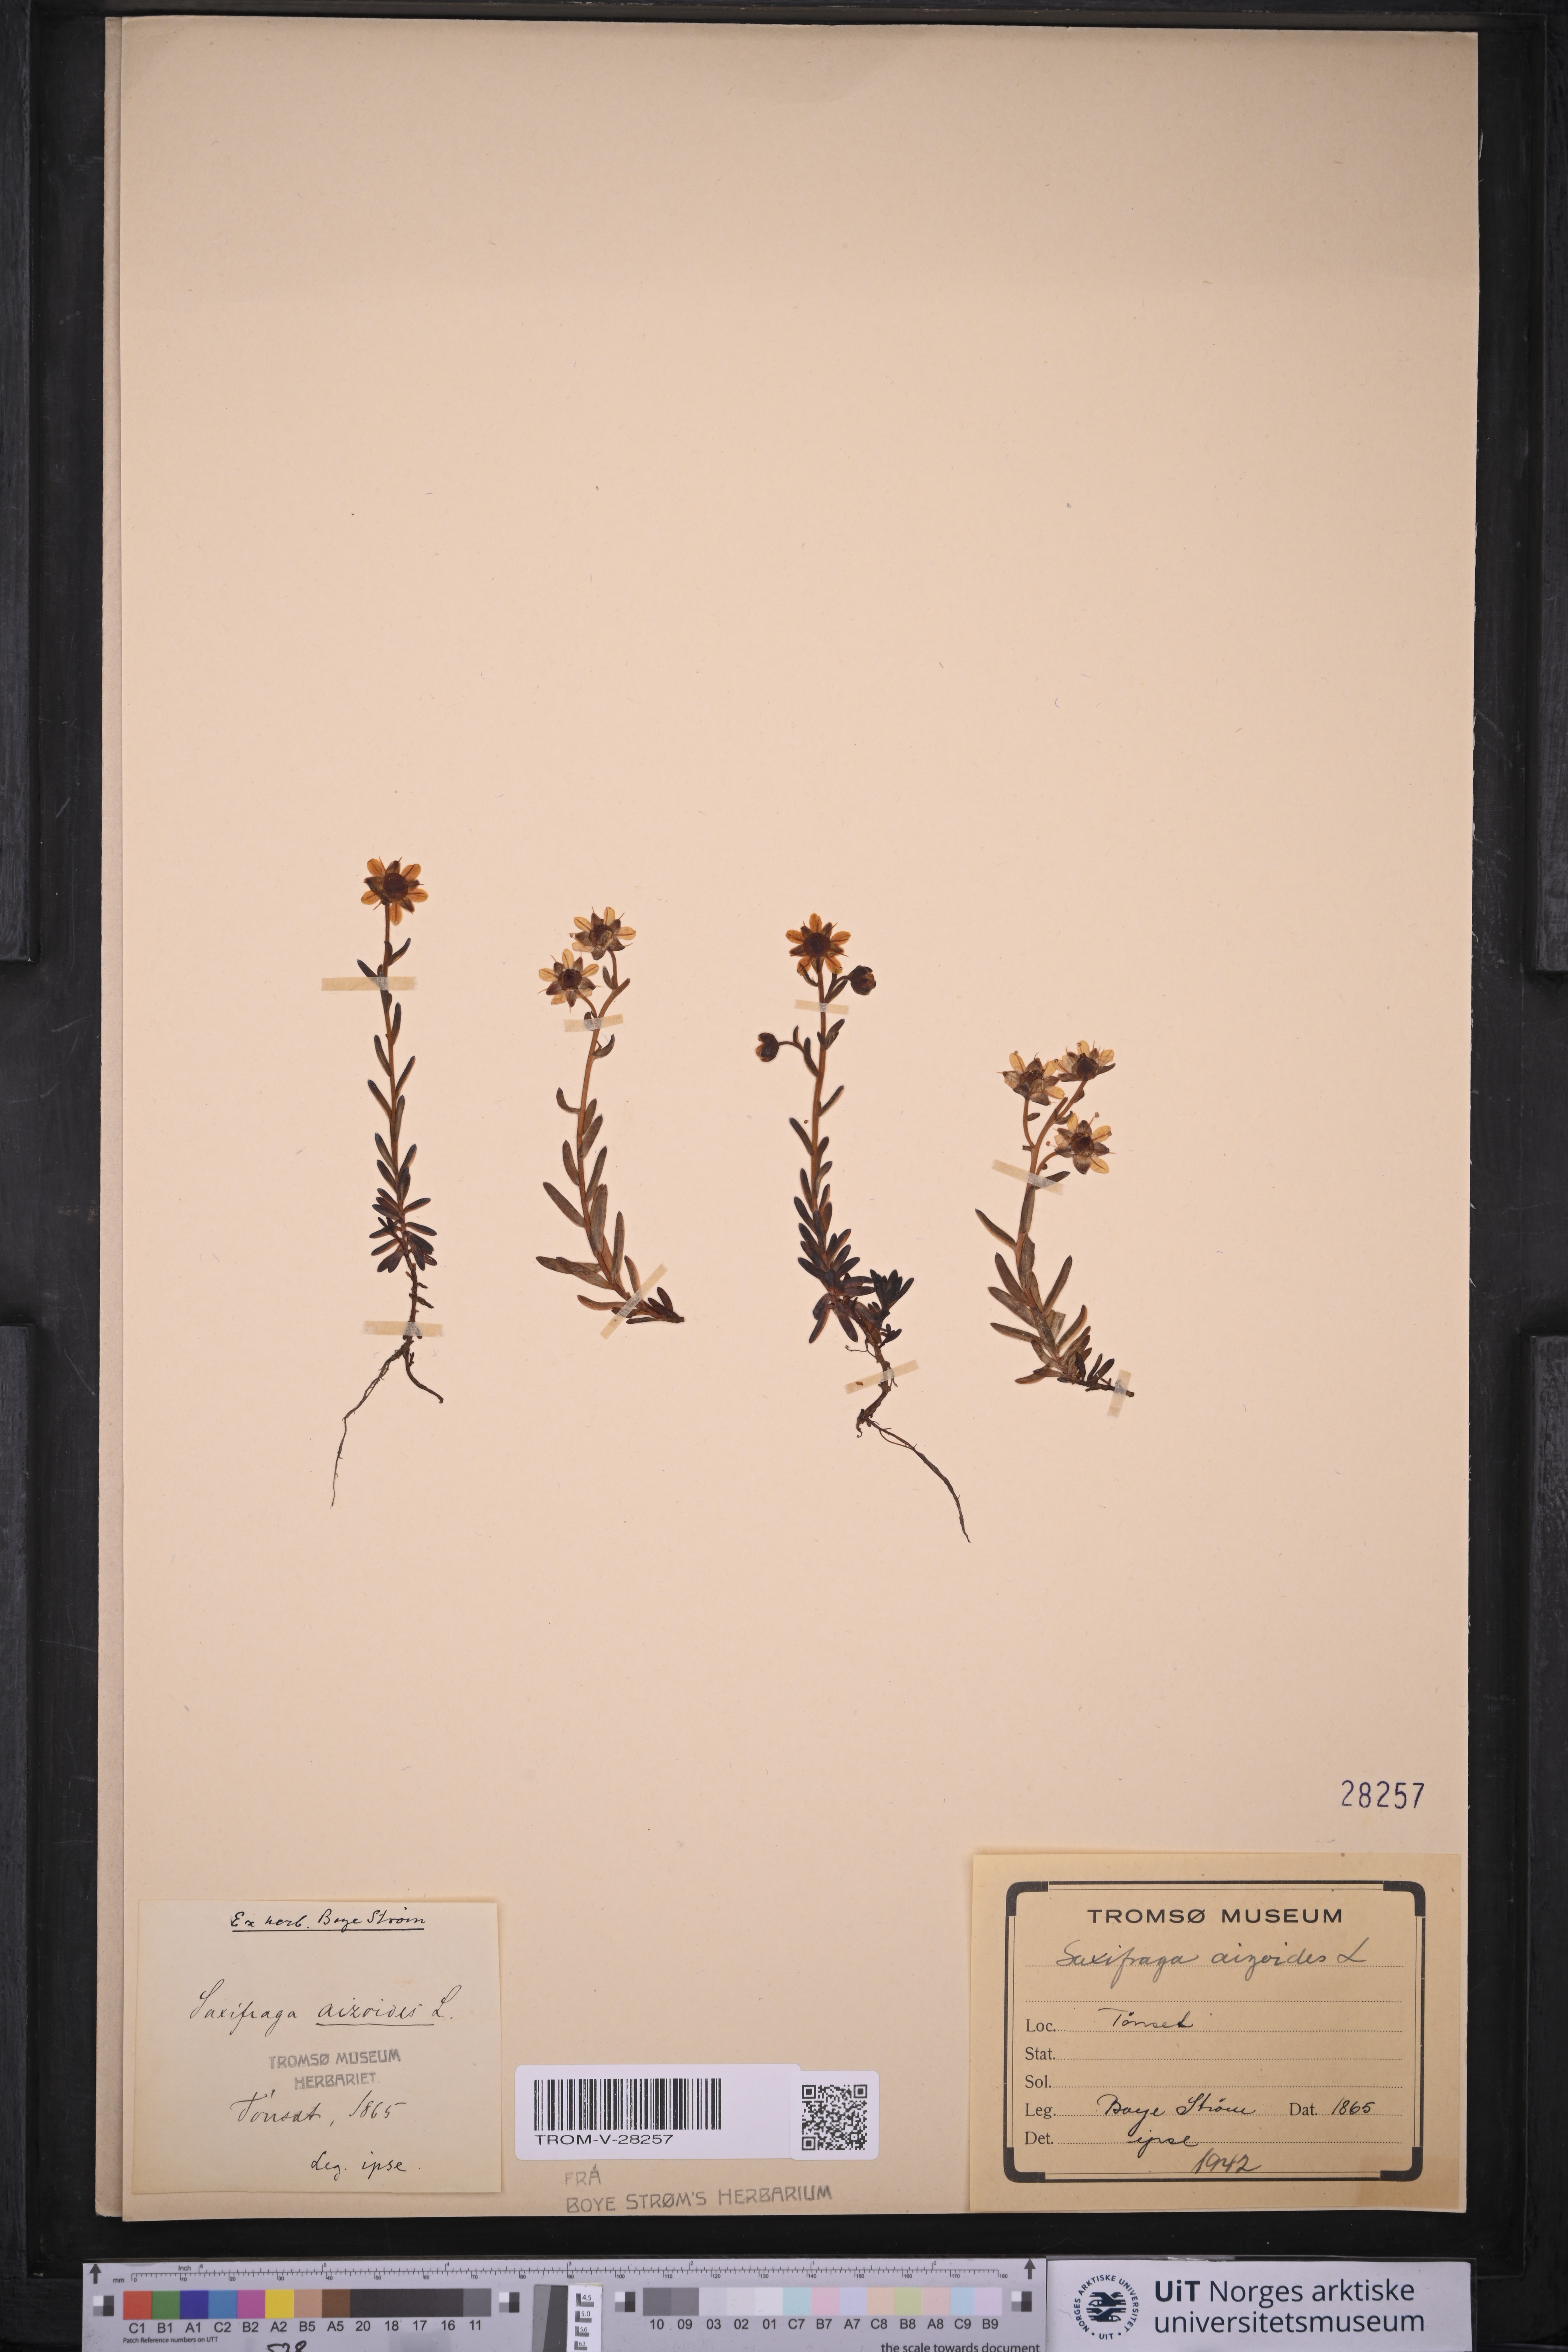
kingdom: Plantae
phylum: Tracheophyta
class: Magnoliopsida
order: Saxifragales
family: Saxifragaceae
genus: Saxifraga
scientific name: Saxifraga aizoides
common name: Yellow mountain saxifrage
